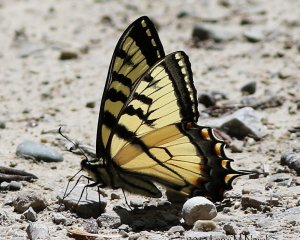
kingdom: Animalia
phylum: Arthropoda
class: Insecta
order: Lepidoptera
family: Papilionidae
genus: Pterourus
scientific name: Pterourus canadensis
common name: Canadian Tiger Swallowtail
